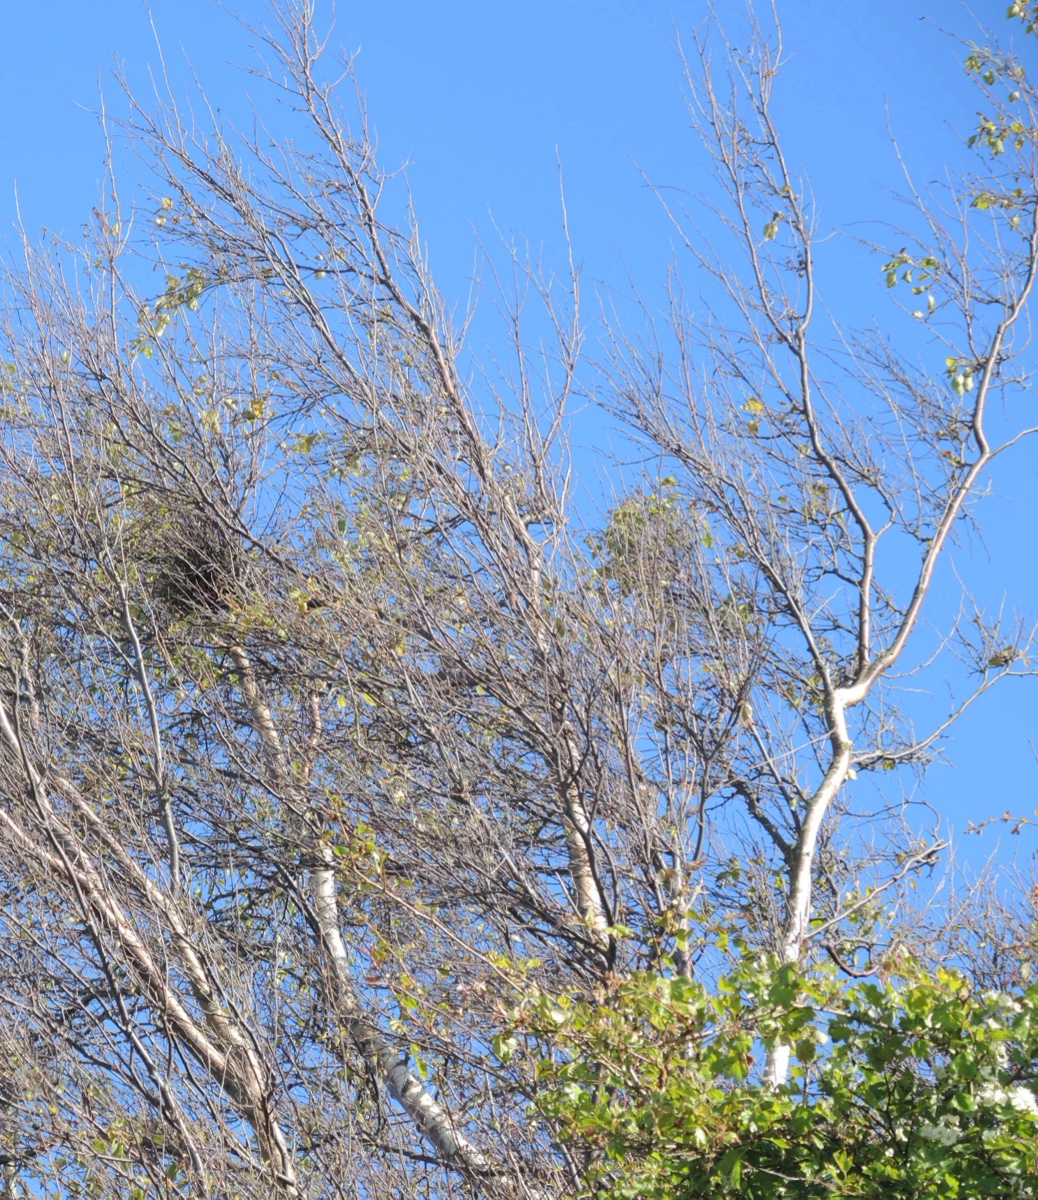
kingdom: Fungi
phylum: Ascomycota
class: Taphrinomycetes
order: Taphrinales
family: Taphrinaceae
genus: Taphrina
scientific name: Taphrina betulina
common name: hekse-sækdug
